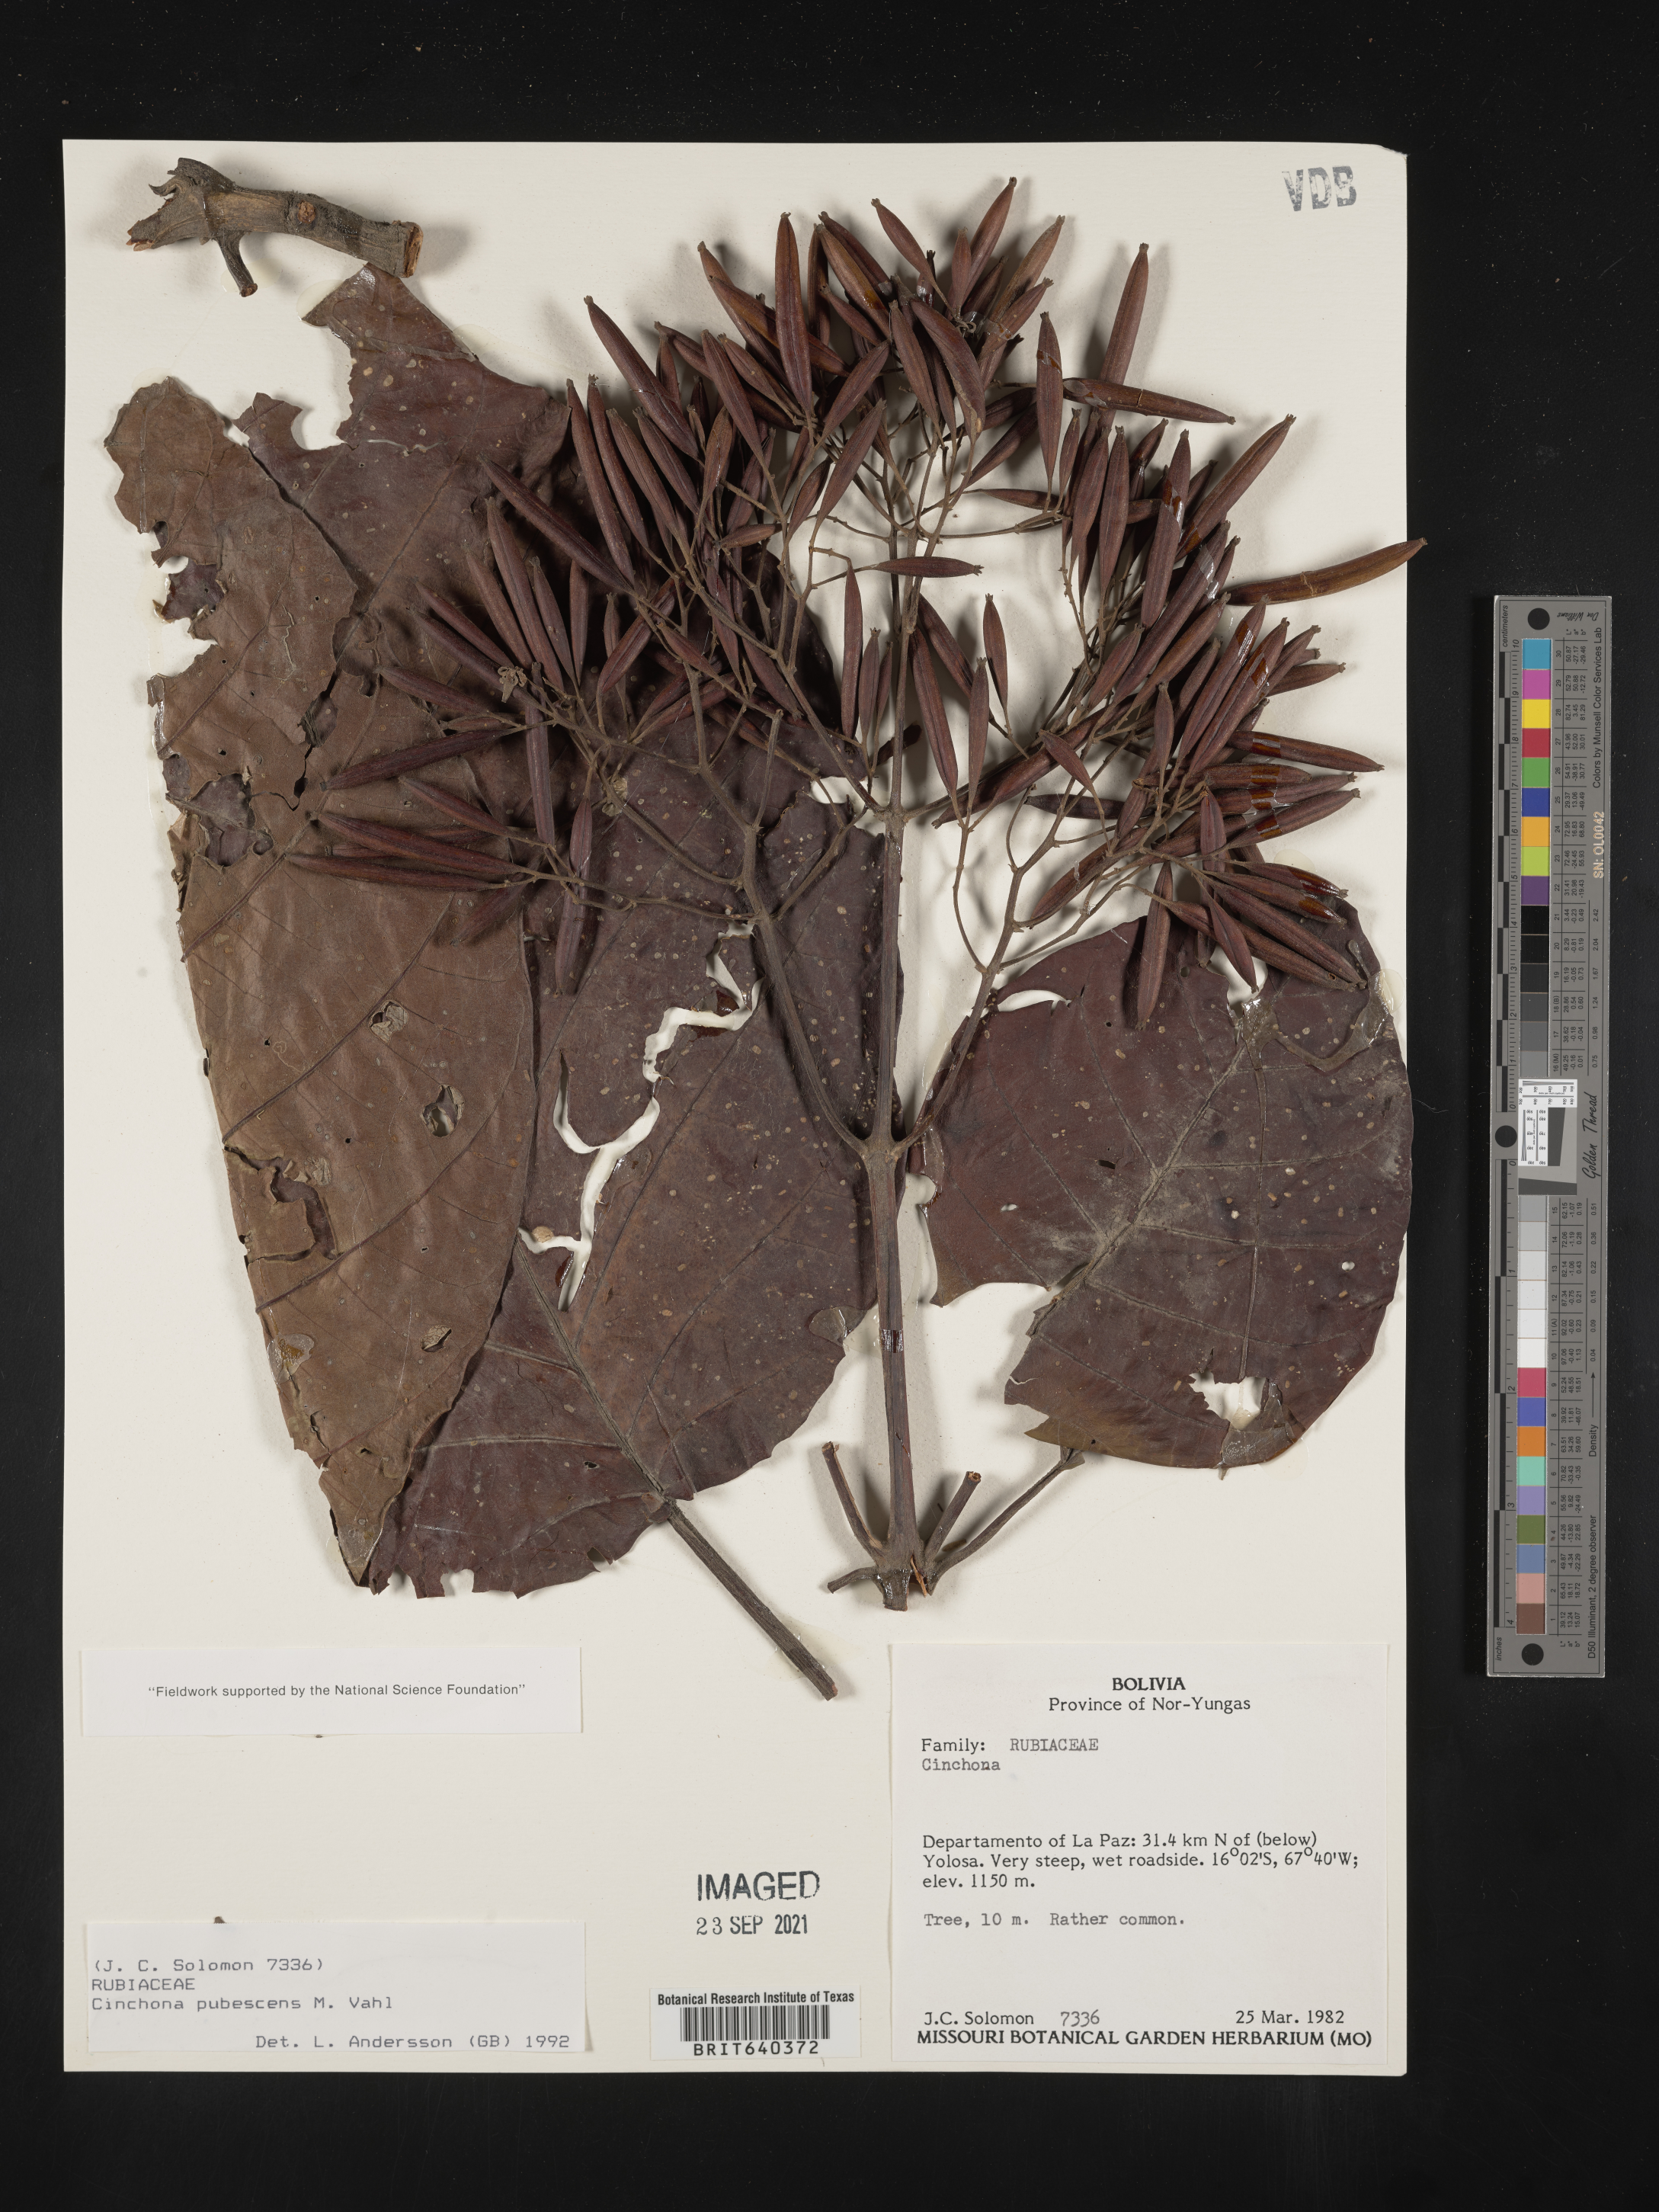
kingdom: Plantae
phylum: Tracheophyta
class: Magnoliopsida
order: Gentianales
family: Rubiaceae
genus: Cinchona
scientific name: Cinchona
